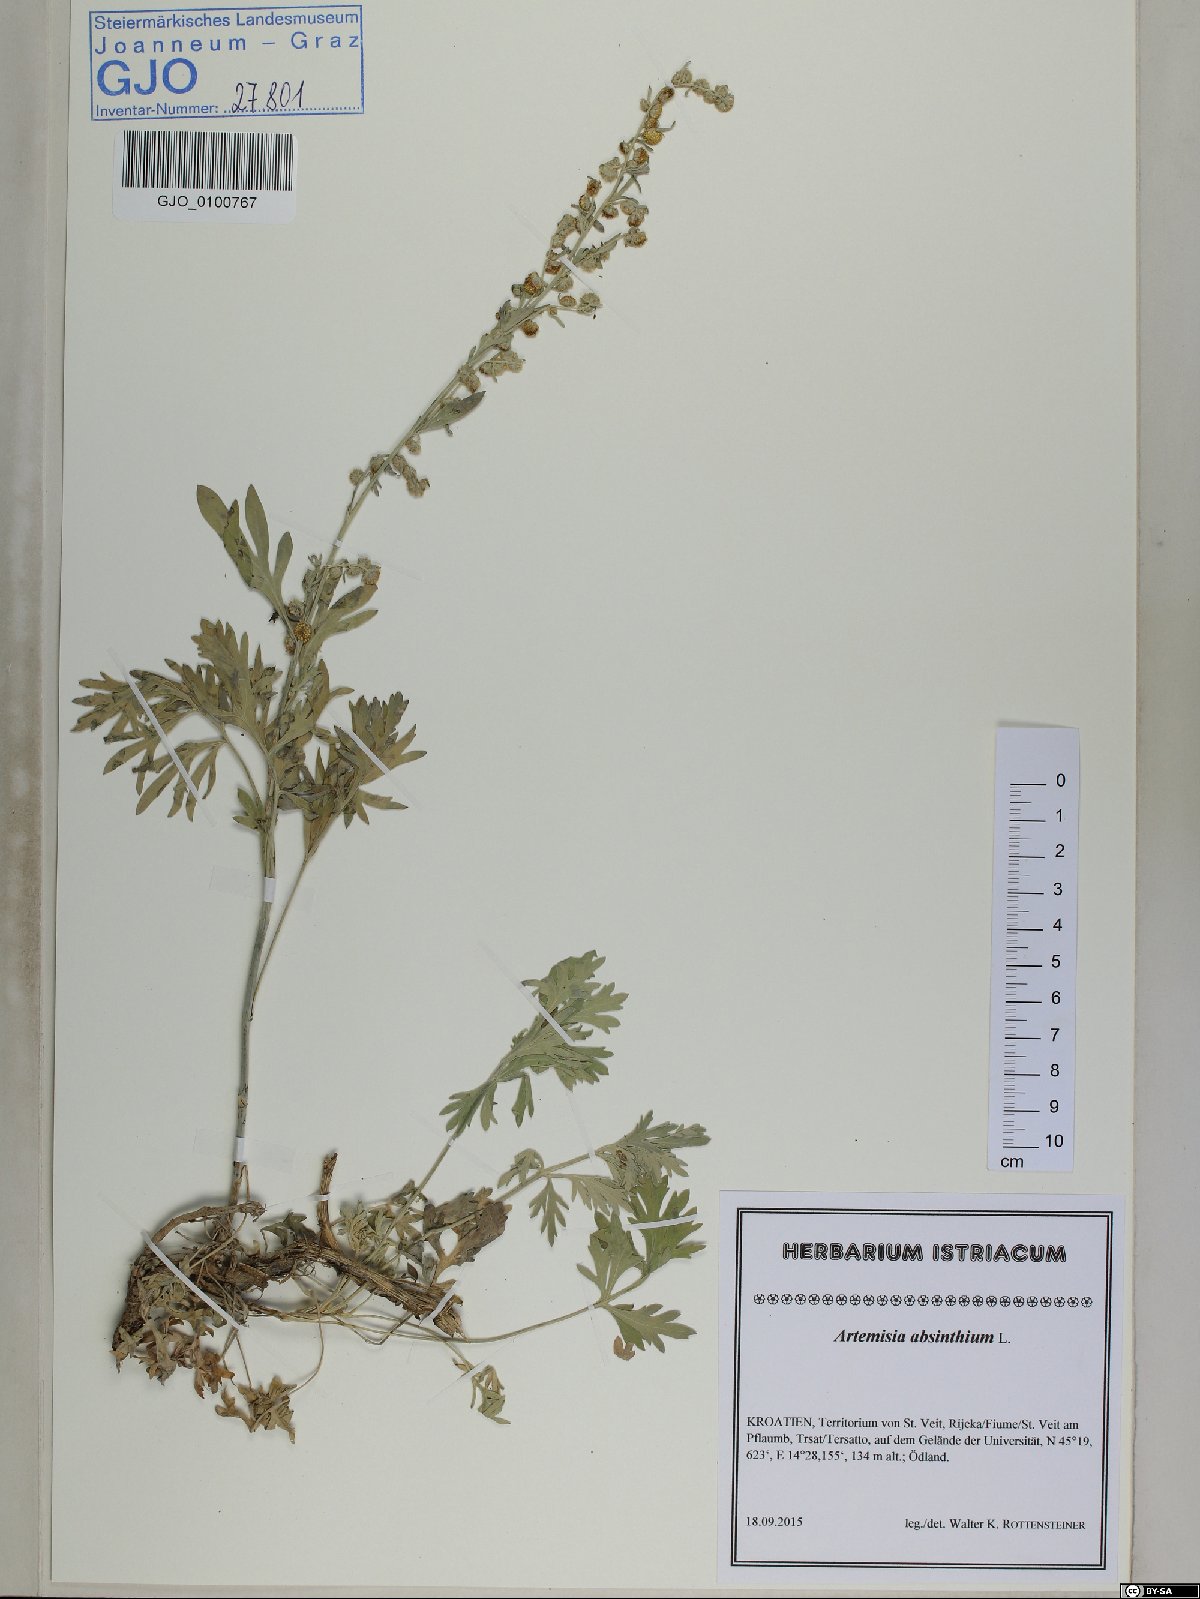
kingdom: Plantae
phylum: Tracheophyta
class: Magnoliopsida
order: Asterales
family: Asteraceae
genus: Artemisia
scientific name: Artemisia absinthium
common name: Wormwood
